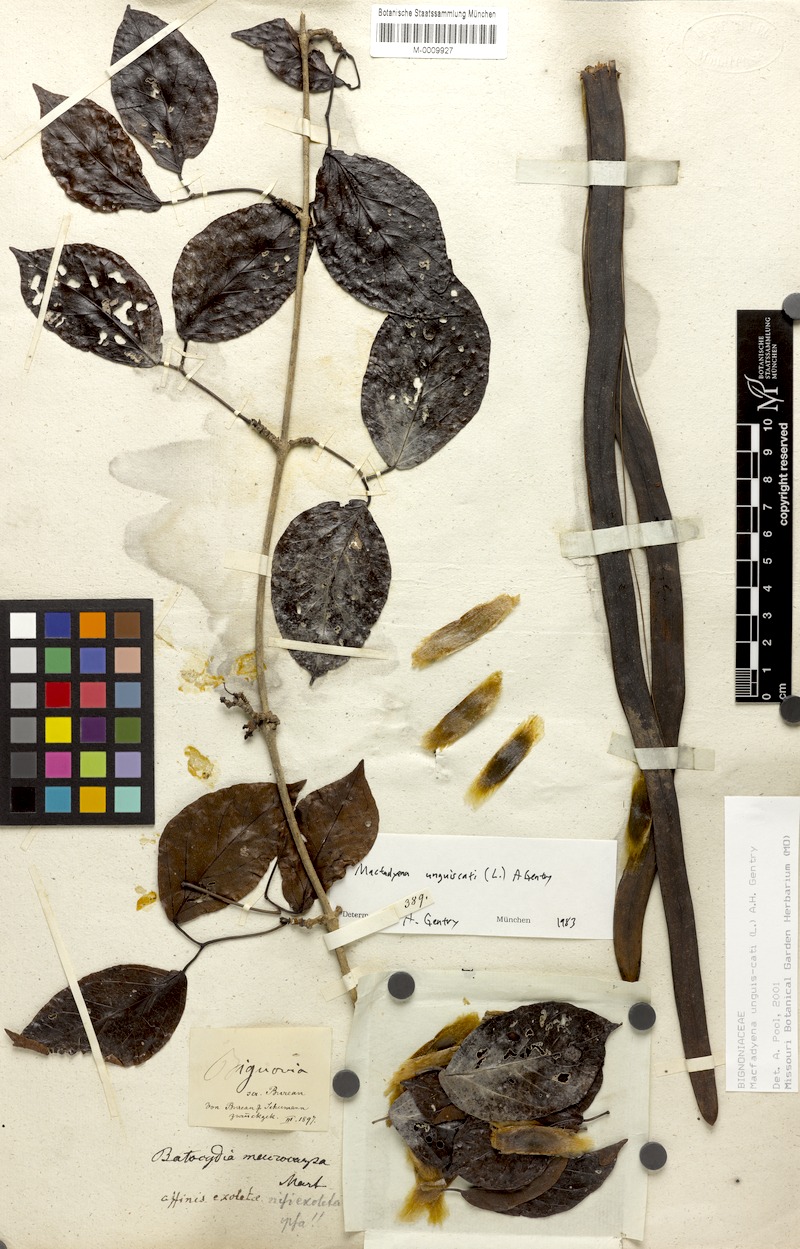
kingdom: Plantae
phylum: Tracheophyta
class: Magnoliopsida
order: Lamiales
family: Bignoniaceae
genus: Dolichandra
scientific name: Dolichandra unguis-cati
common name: Catclaw vine
